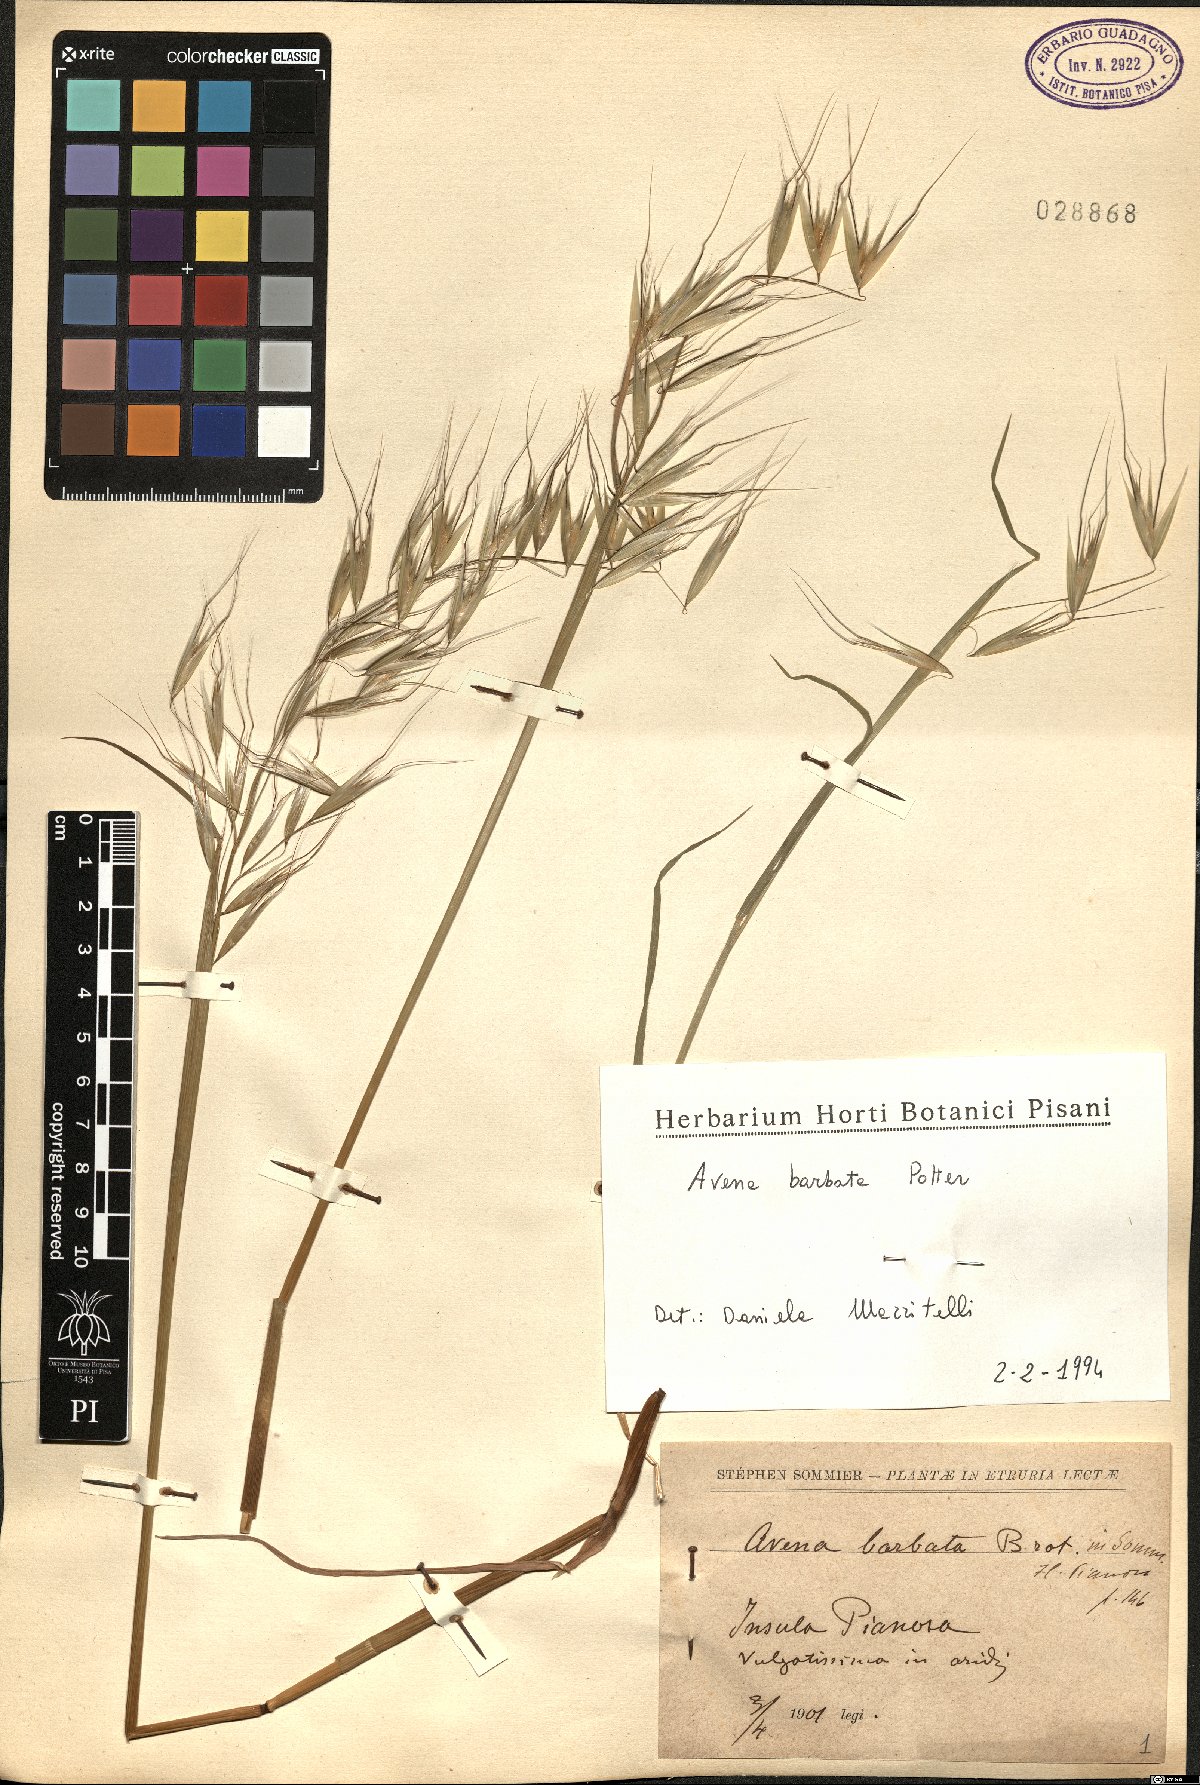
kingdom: Plantae
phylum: Tracheophyta
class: Liliopsida
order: Poales
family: Poaceae
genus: Avena
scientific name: Avena barbata
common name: Slender oat
